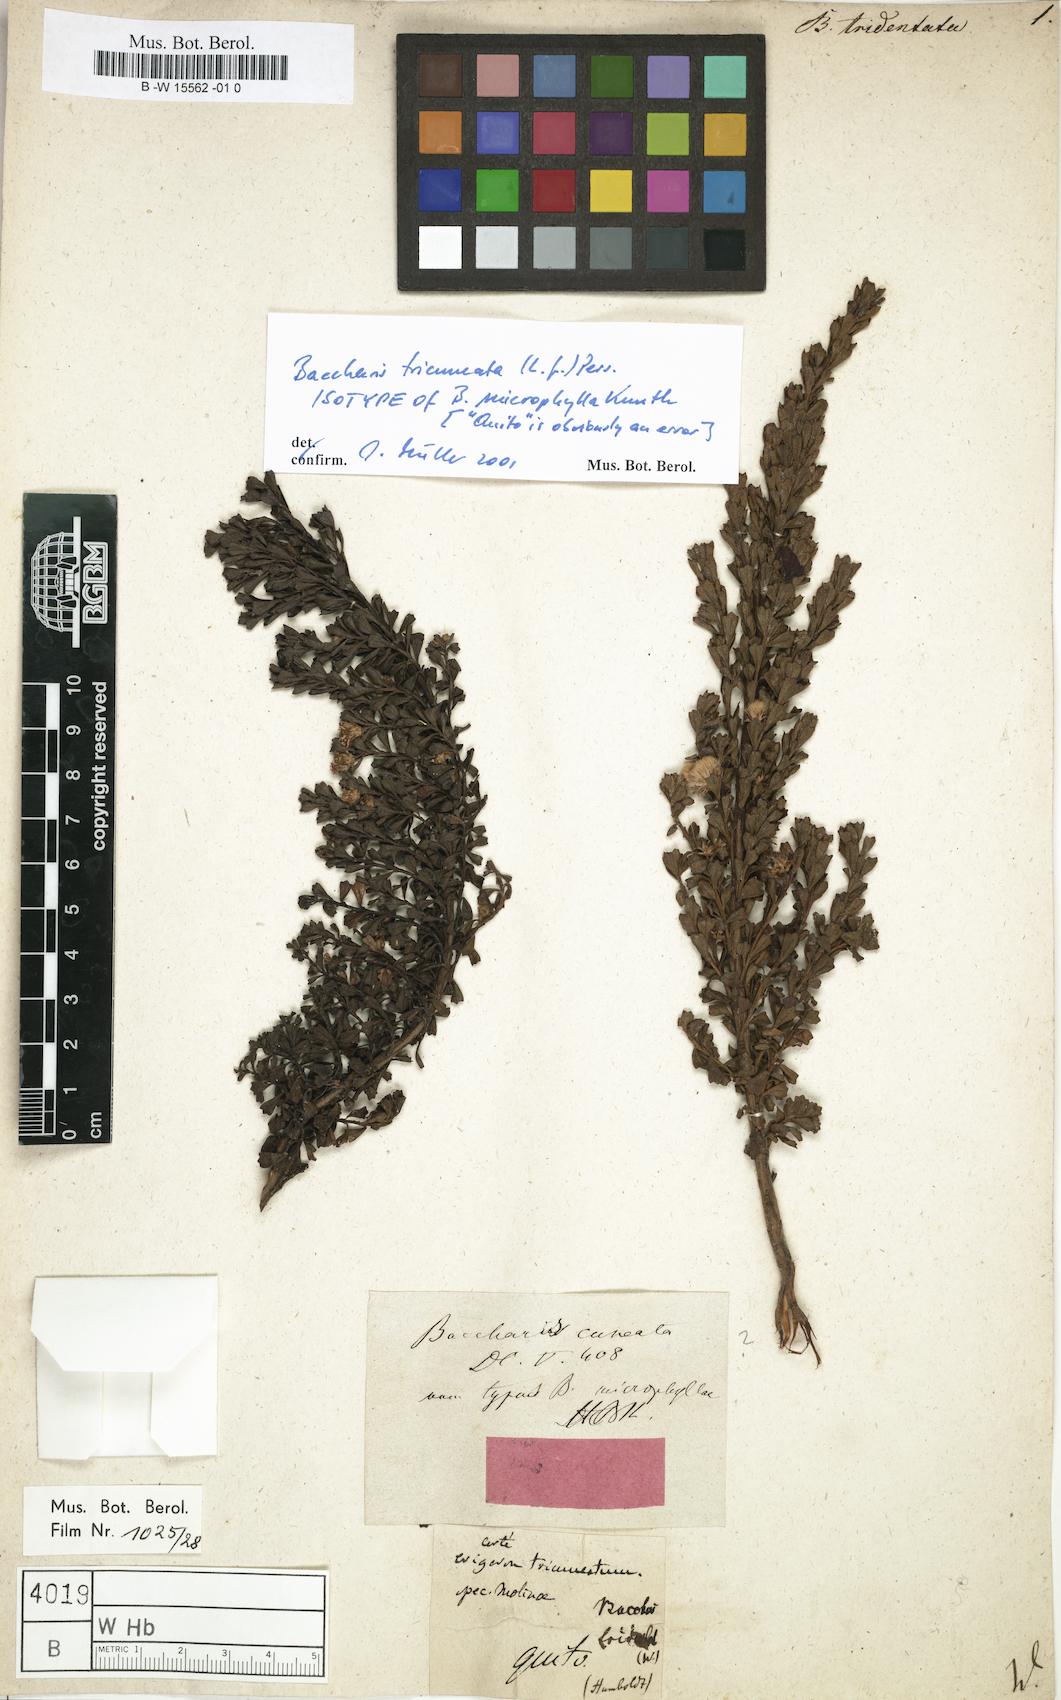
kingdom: Plantae
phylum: Tracheophyta
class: Magnoliopsida
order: Asterales
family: Asteraceae
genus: Baccharis
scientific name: Baccharis tridentata
